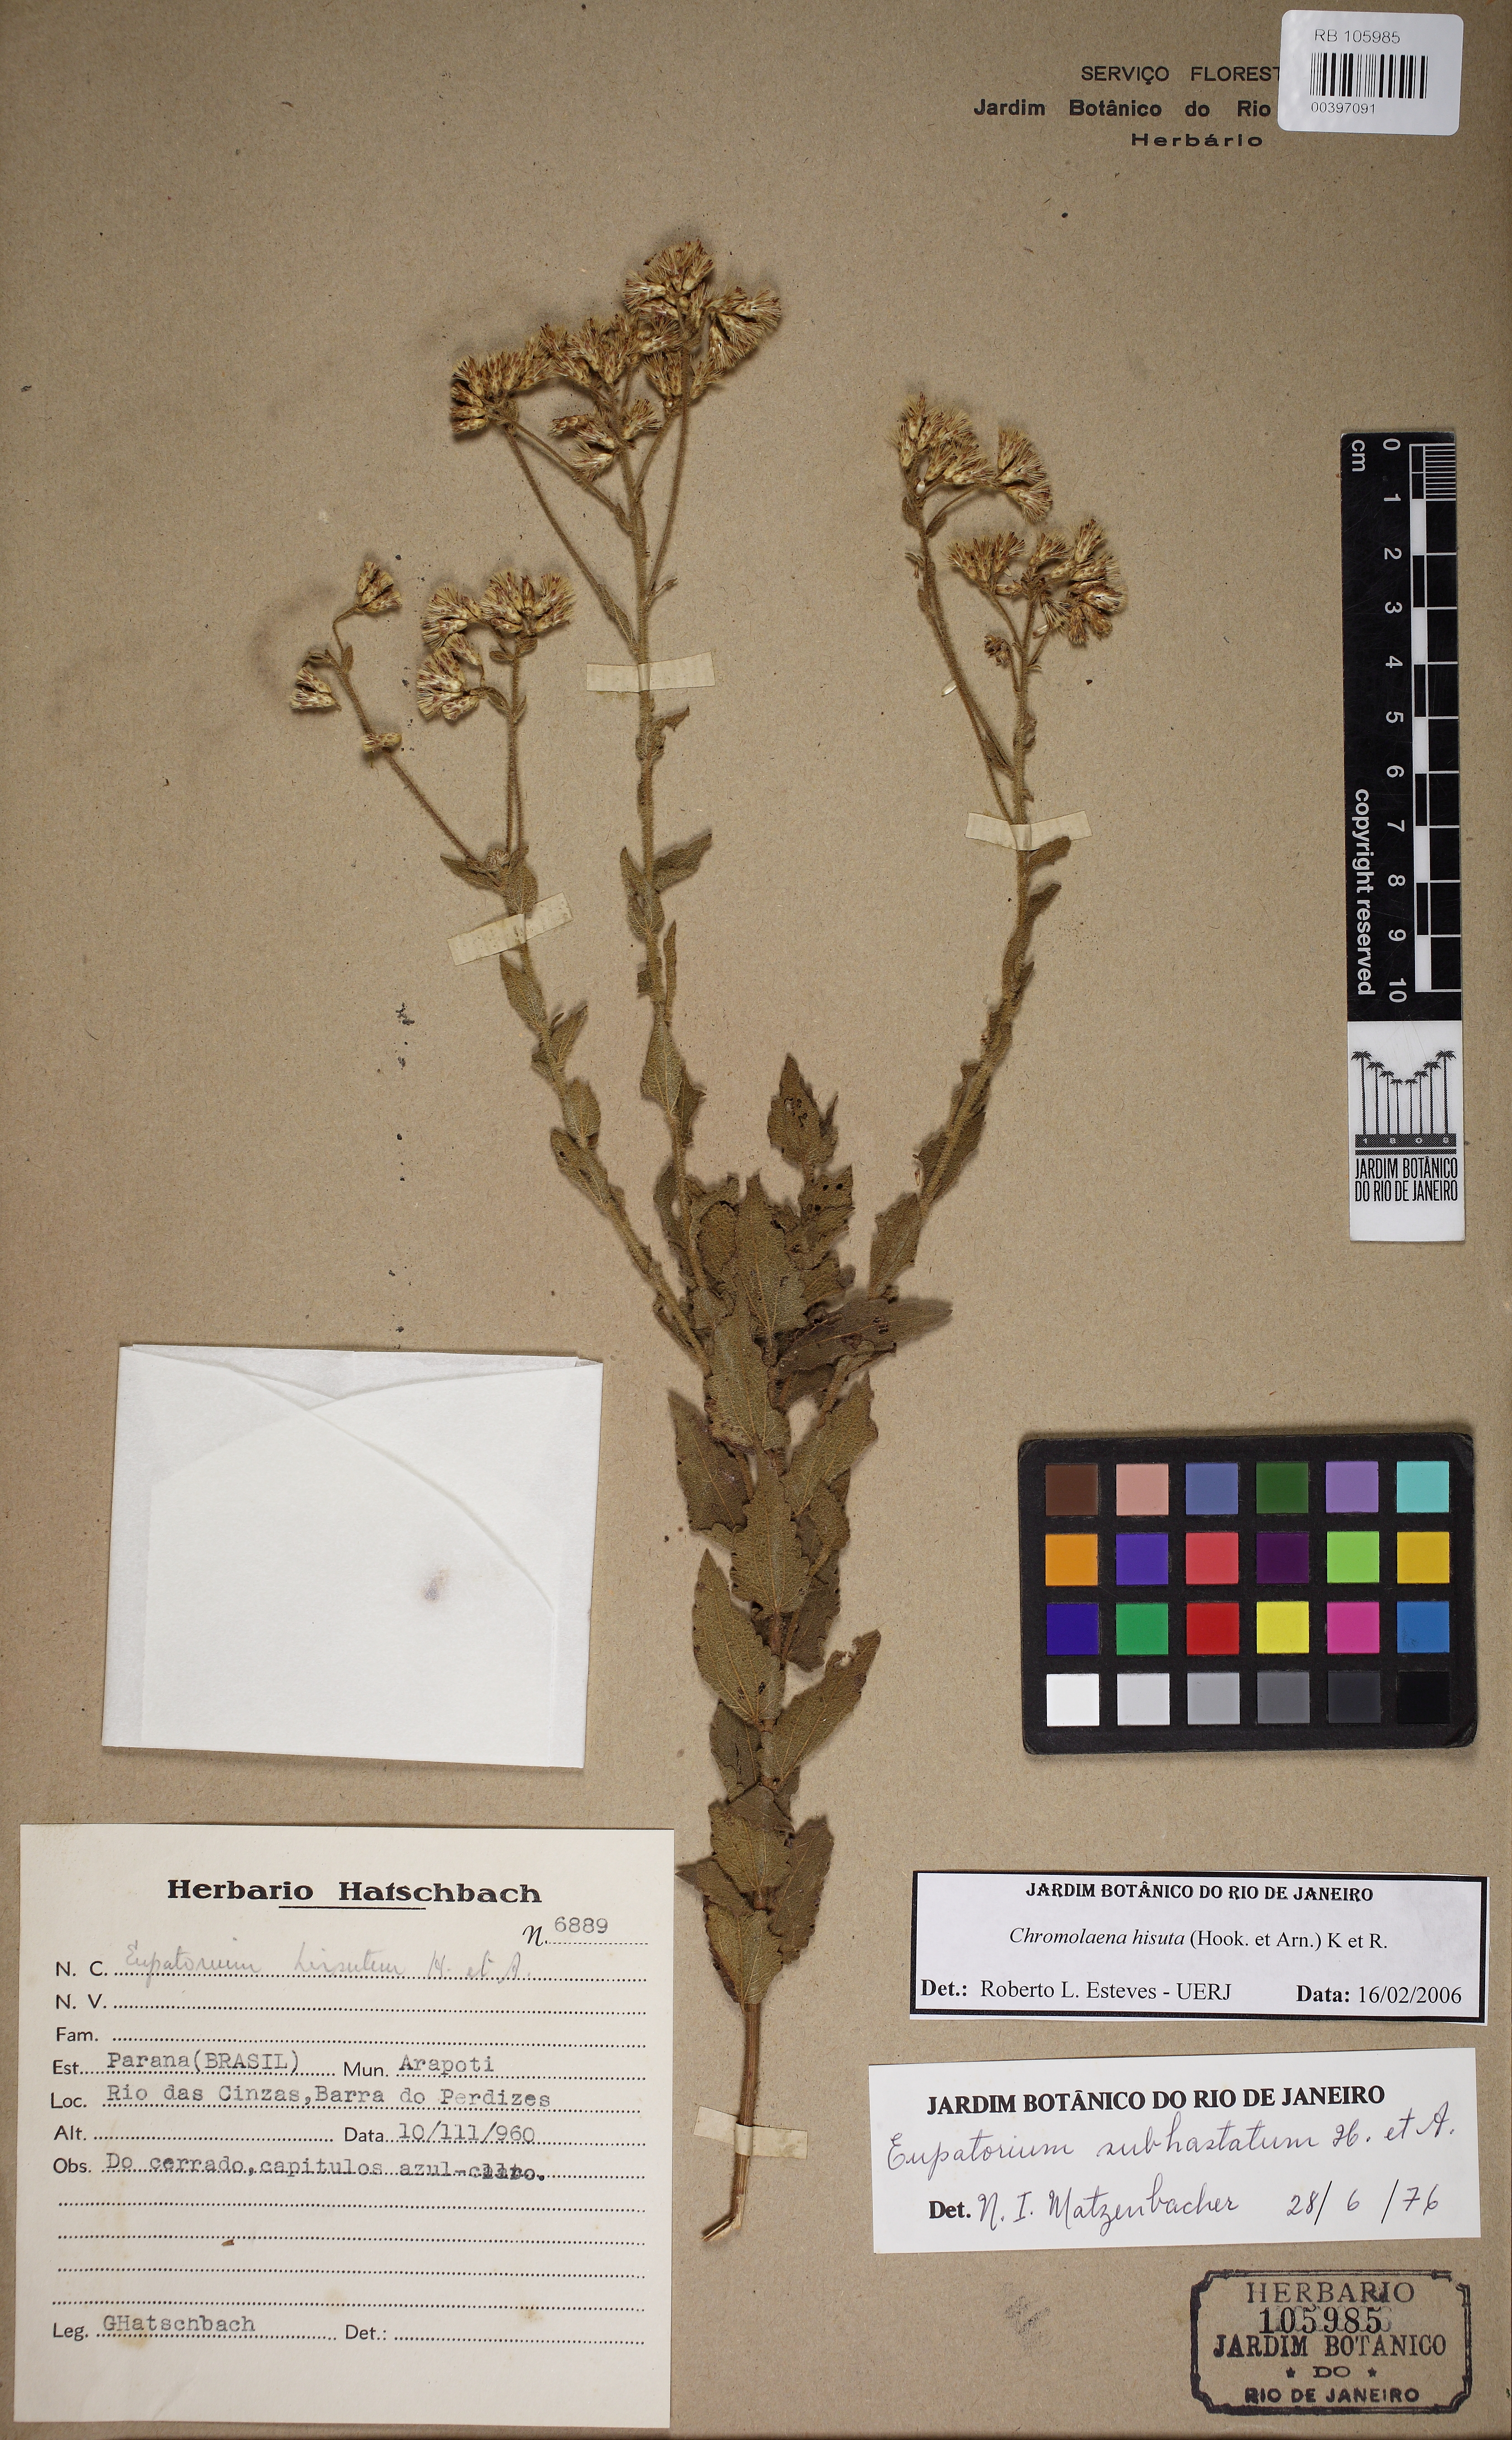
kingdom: Plantae
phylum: Tracheophyta
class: Magnoliopsida
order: Asterales
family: Asteraceae
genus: Chromolaena
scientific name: Chromolaena hirsuta
